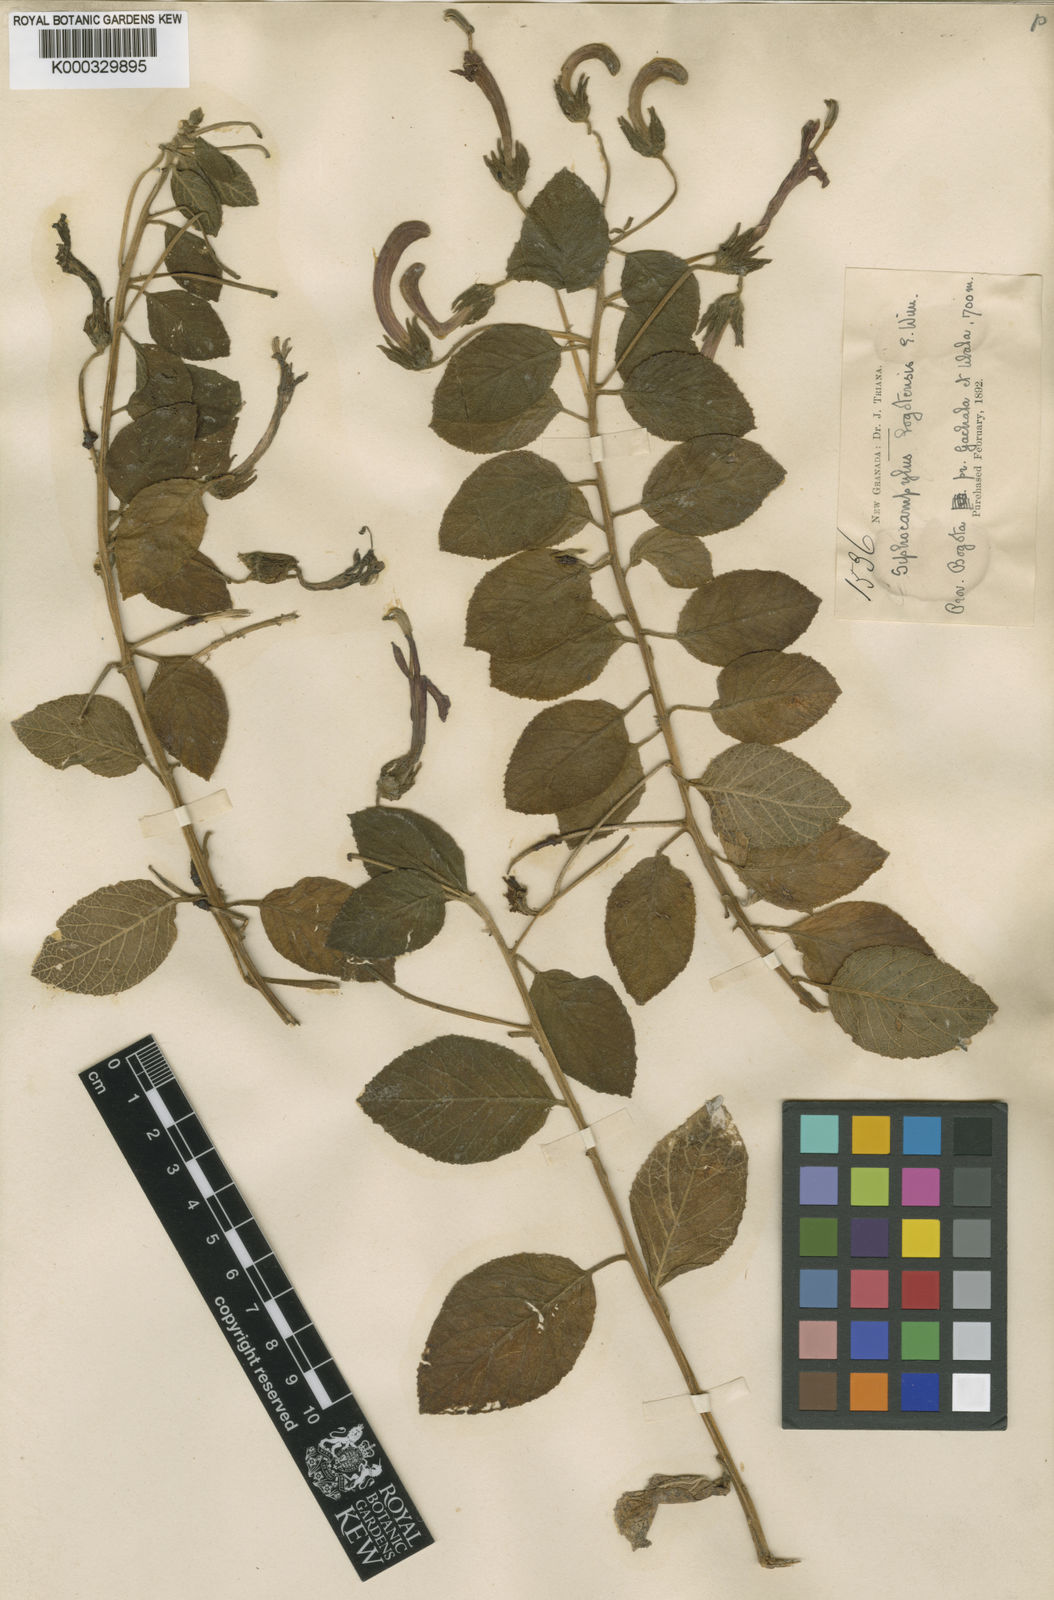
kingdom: Plantae
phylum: Tracheophyta
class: Magnoliopsida
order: Asterales
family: Campanulaceae
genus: Siphocampylus
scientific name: Siphocampylus bogotensis
